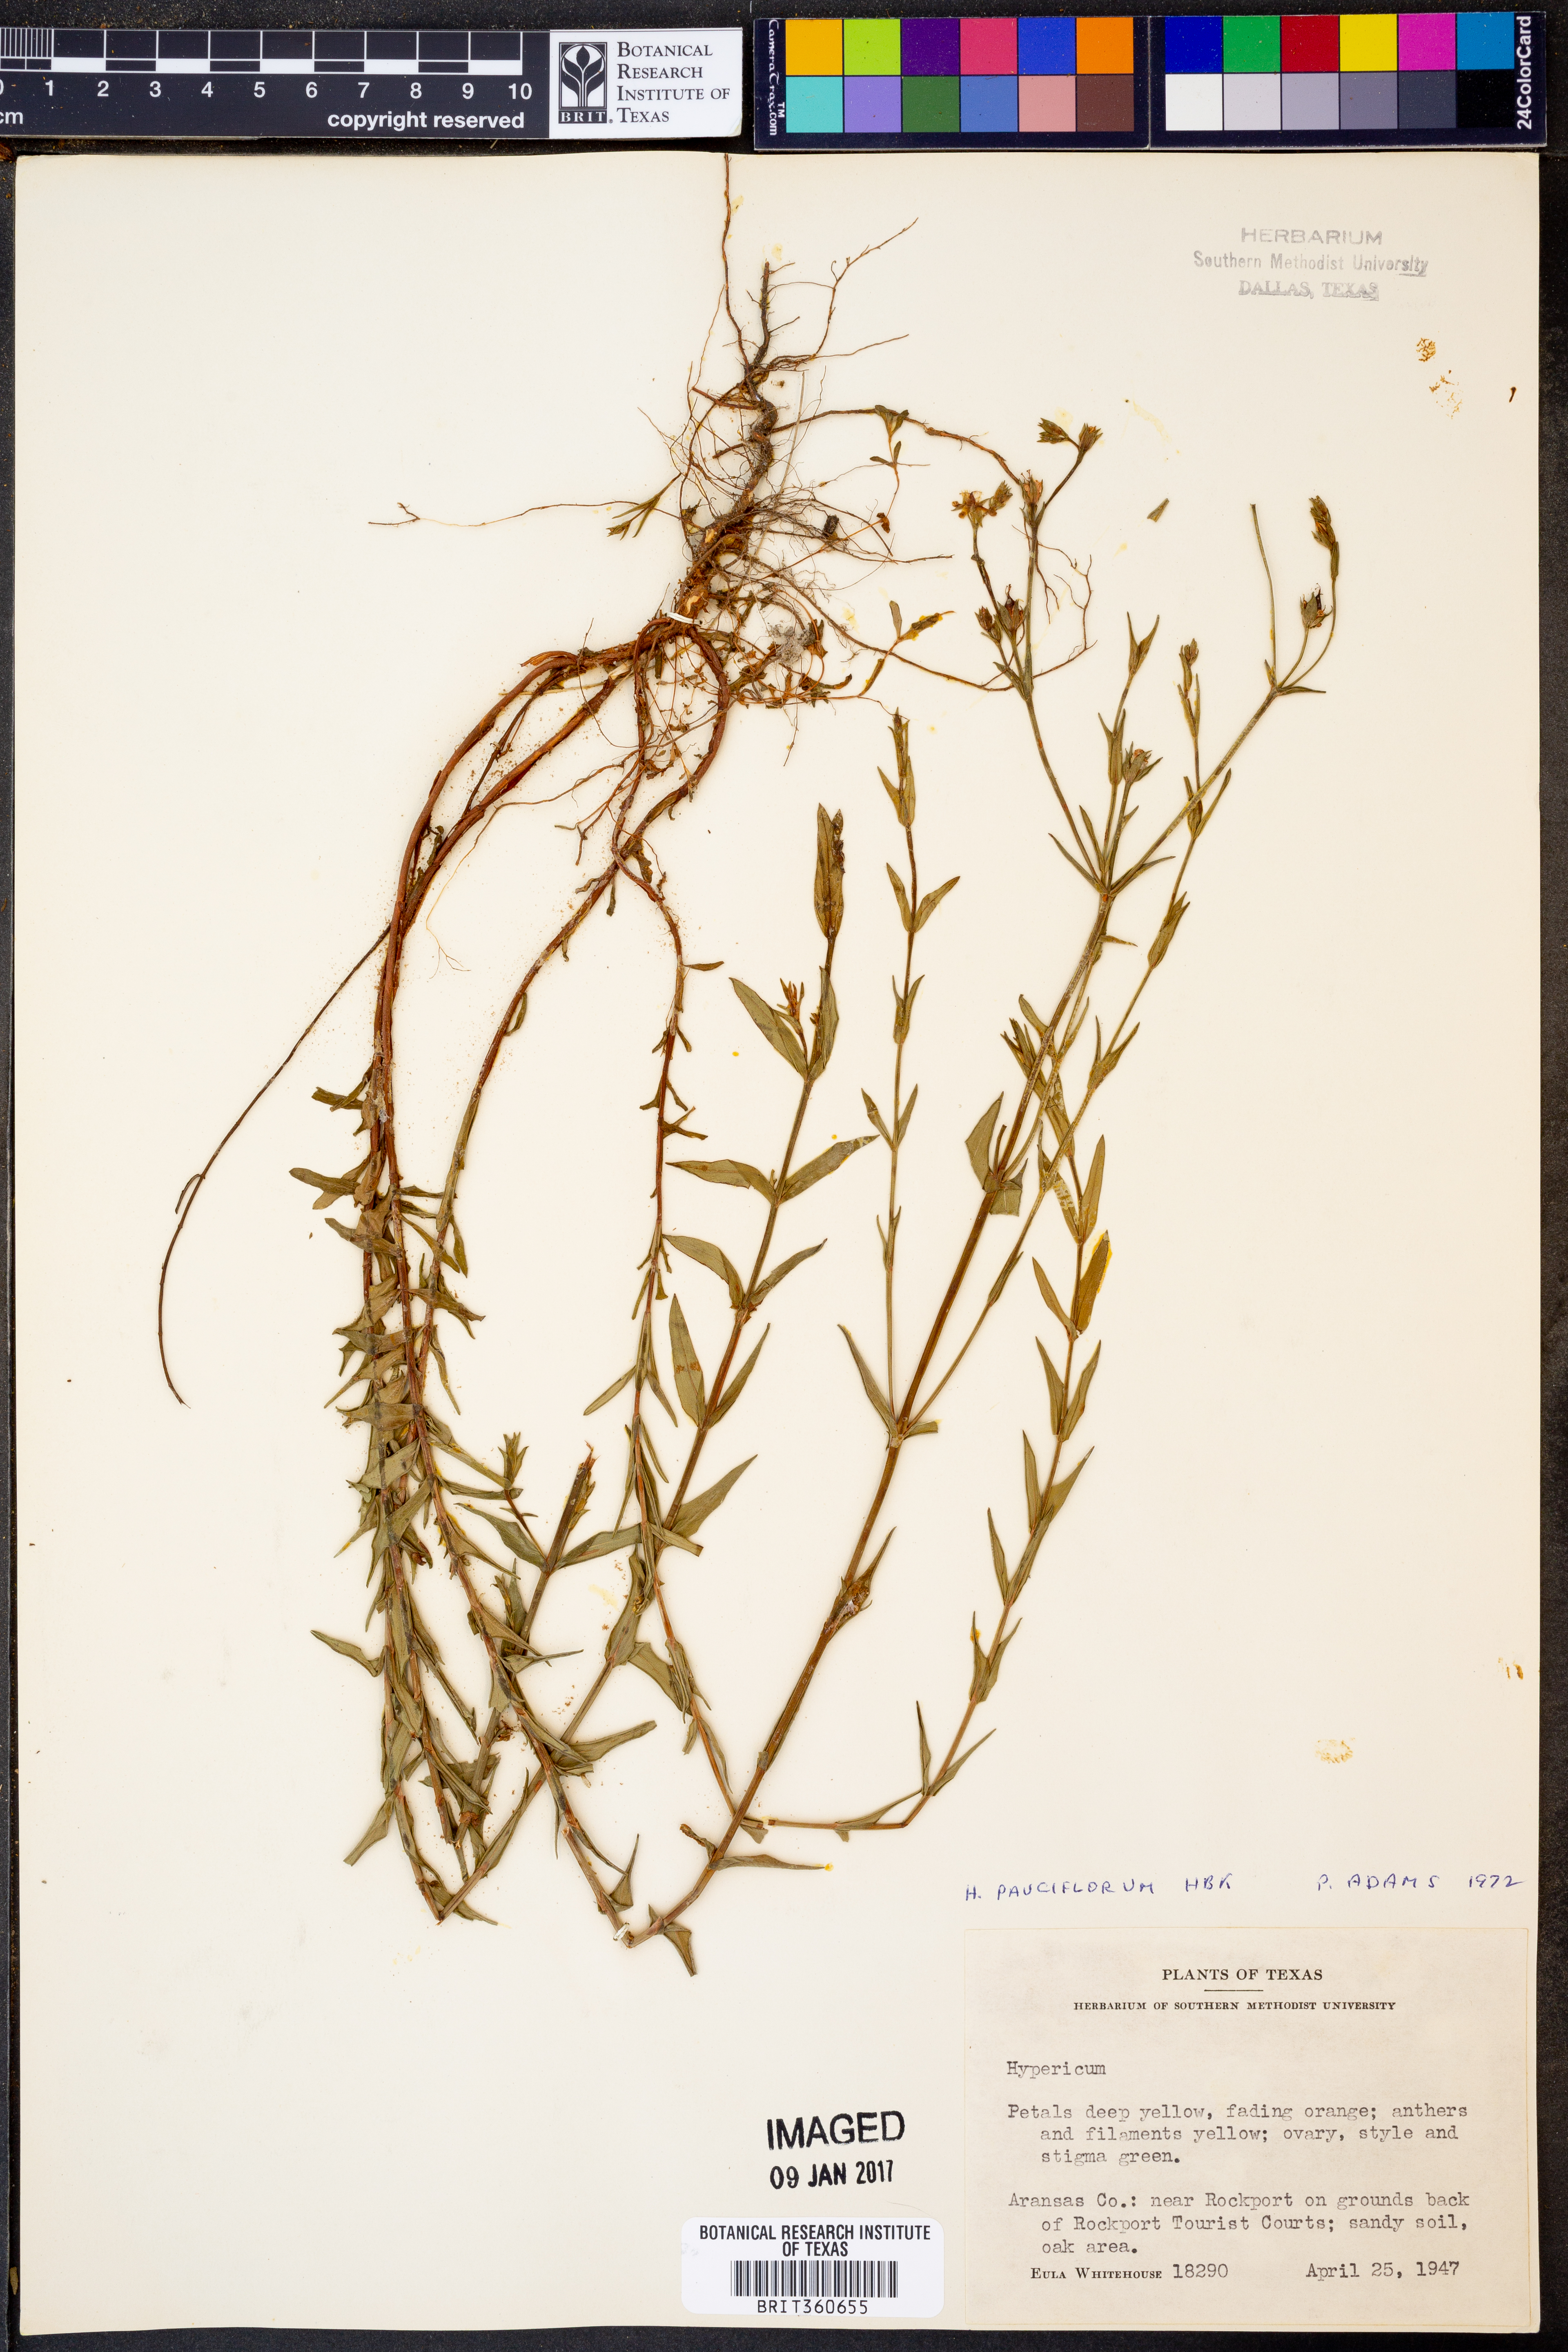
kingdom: Plantae
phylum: Tracheophyta
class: Magnoliopsida
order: Malpighiales
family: Hypericaceae
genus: Hypericum
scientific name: Hypericum pauciflorum
